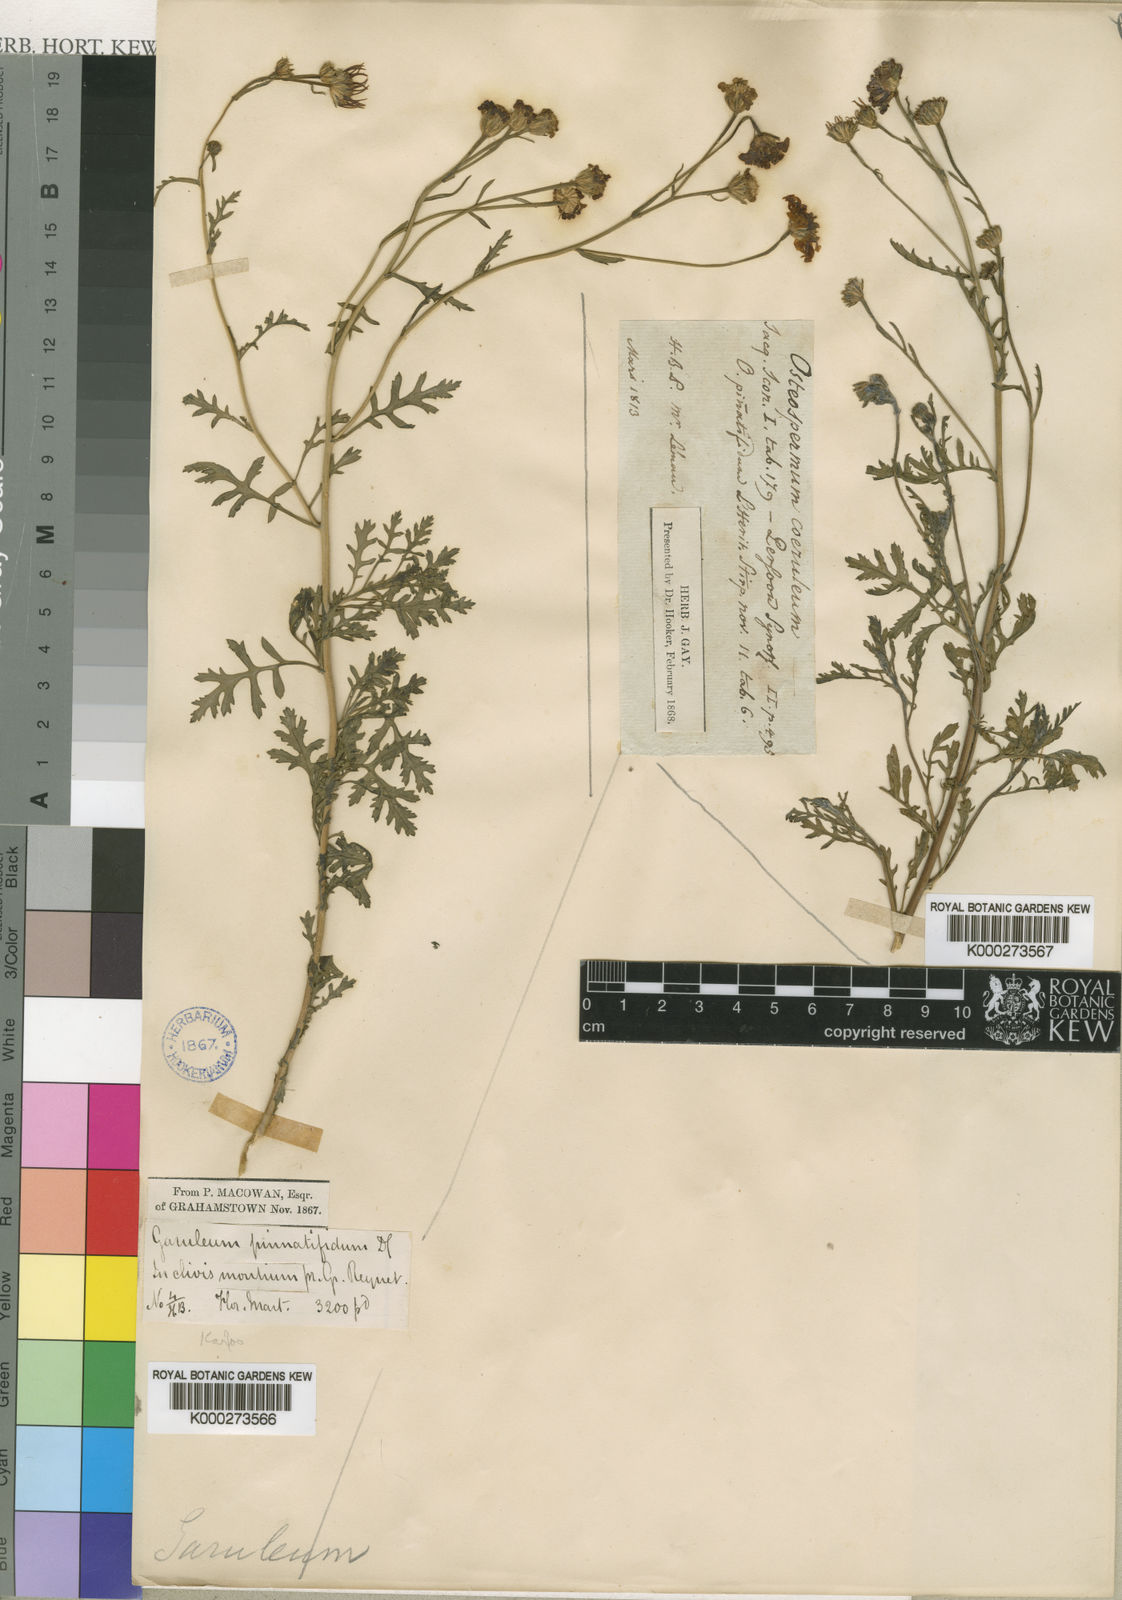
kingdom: Plantae
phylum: Tracheophyta
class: Magnoliopsida
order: Asterales
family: Asteraceae
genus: Garuleum
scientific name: Garuleum pinnatifidum
